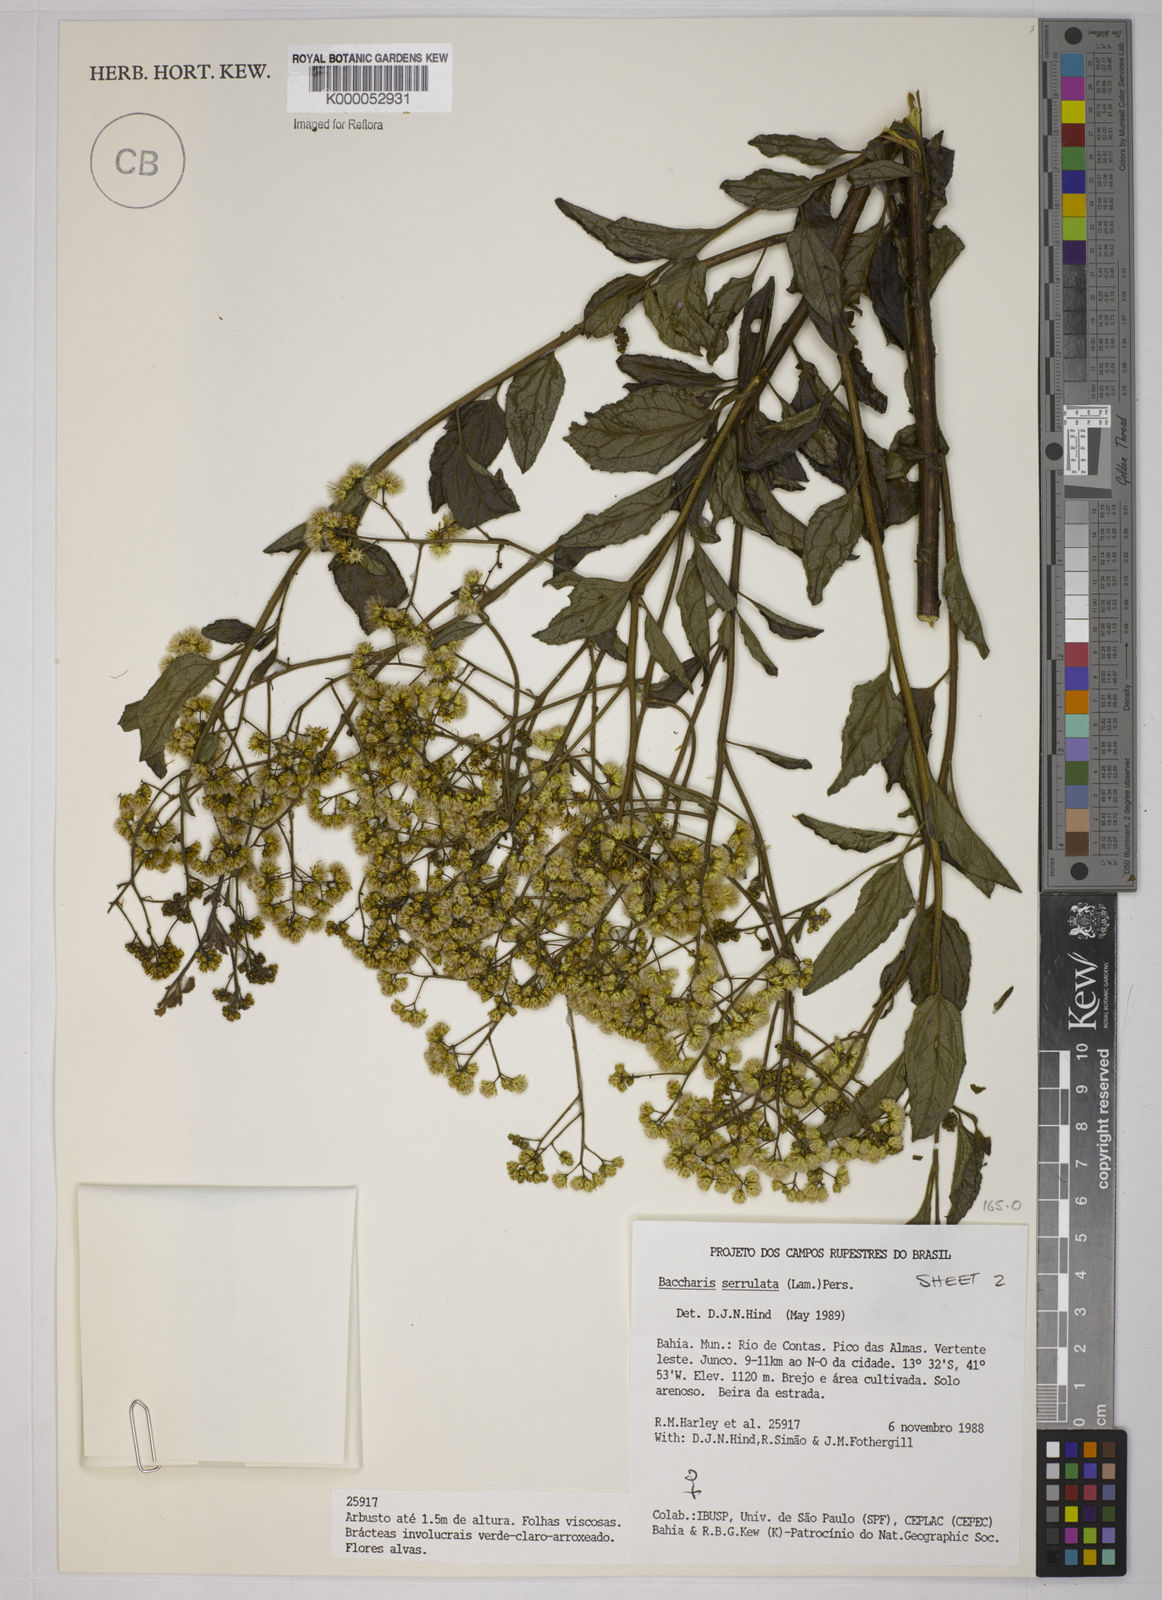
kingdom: Plantae
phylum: Tracheophyta
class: Magnoliopsida
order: Asterales
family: Asteraceae
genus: Baccharis
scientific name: Baccharis serrulata
